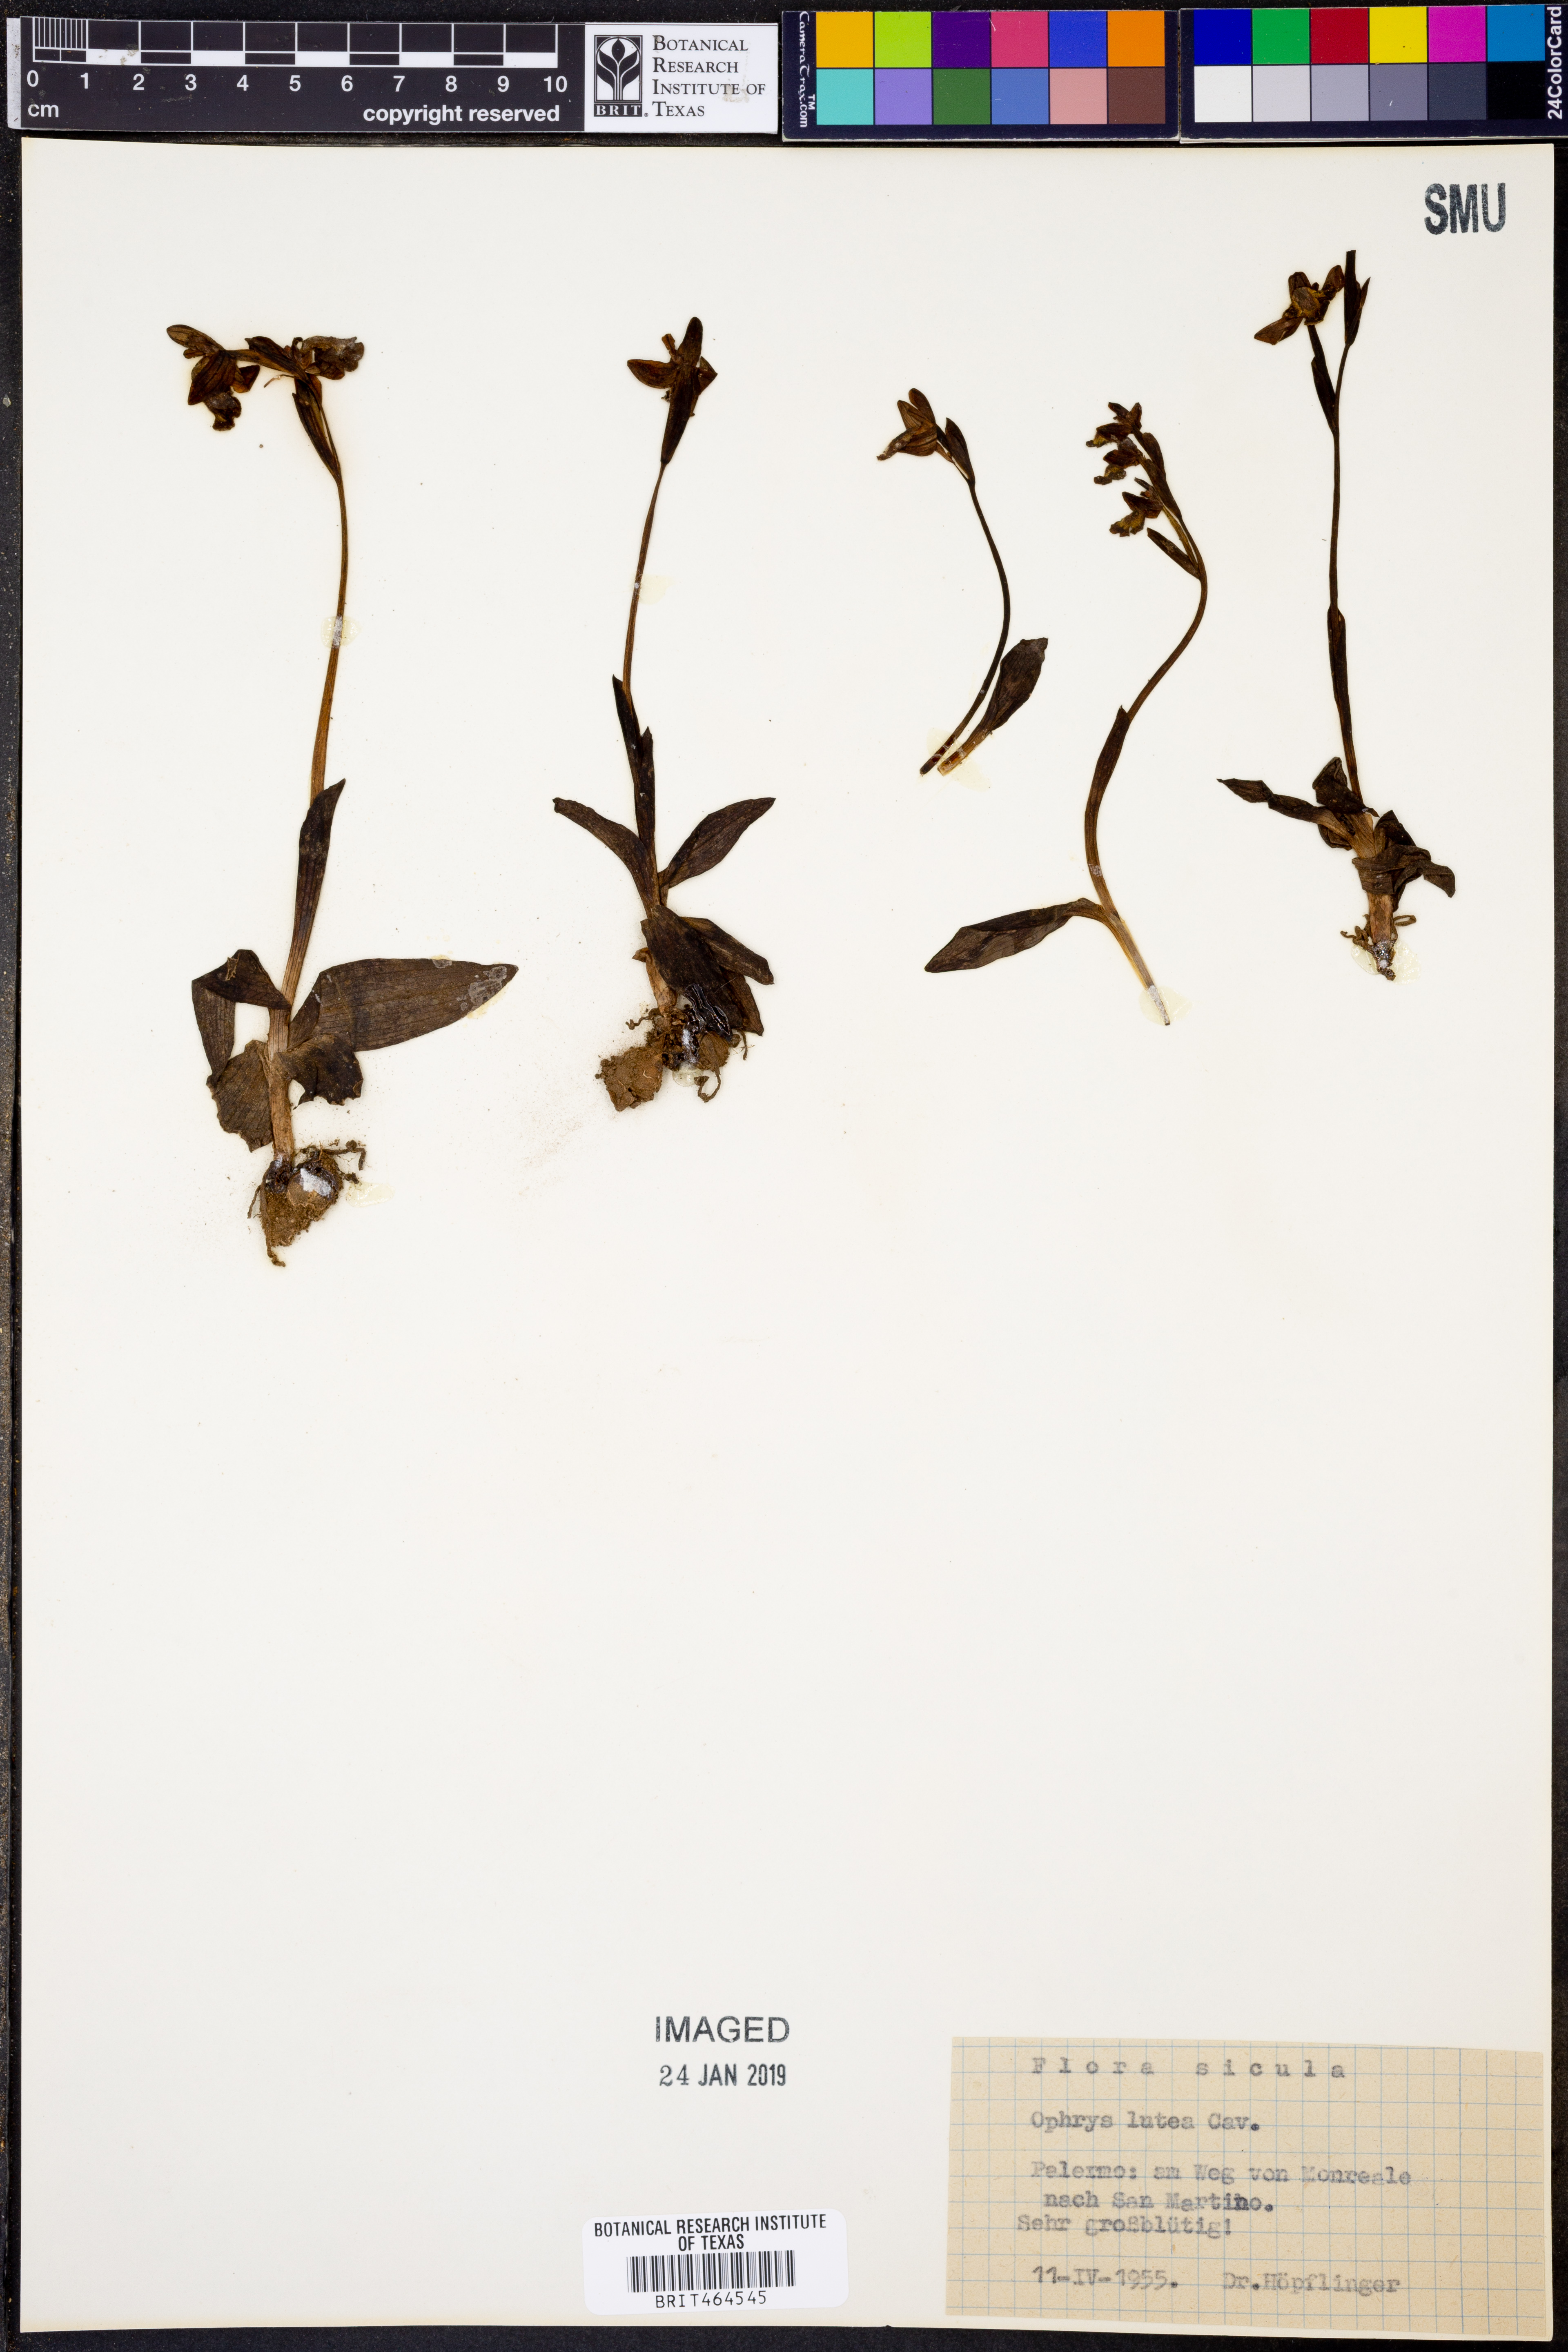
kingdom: Plantae
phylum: Tracheophyta
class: Liliopsida
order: Asparagales
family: Orchidaceae
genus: Ophrys
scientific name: Ophrys lutea
